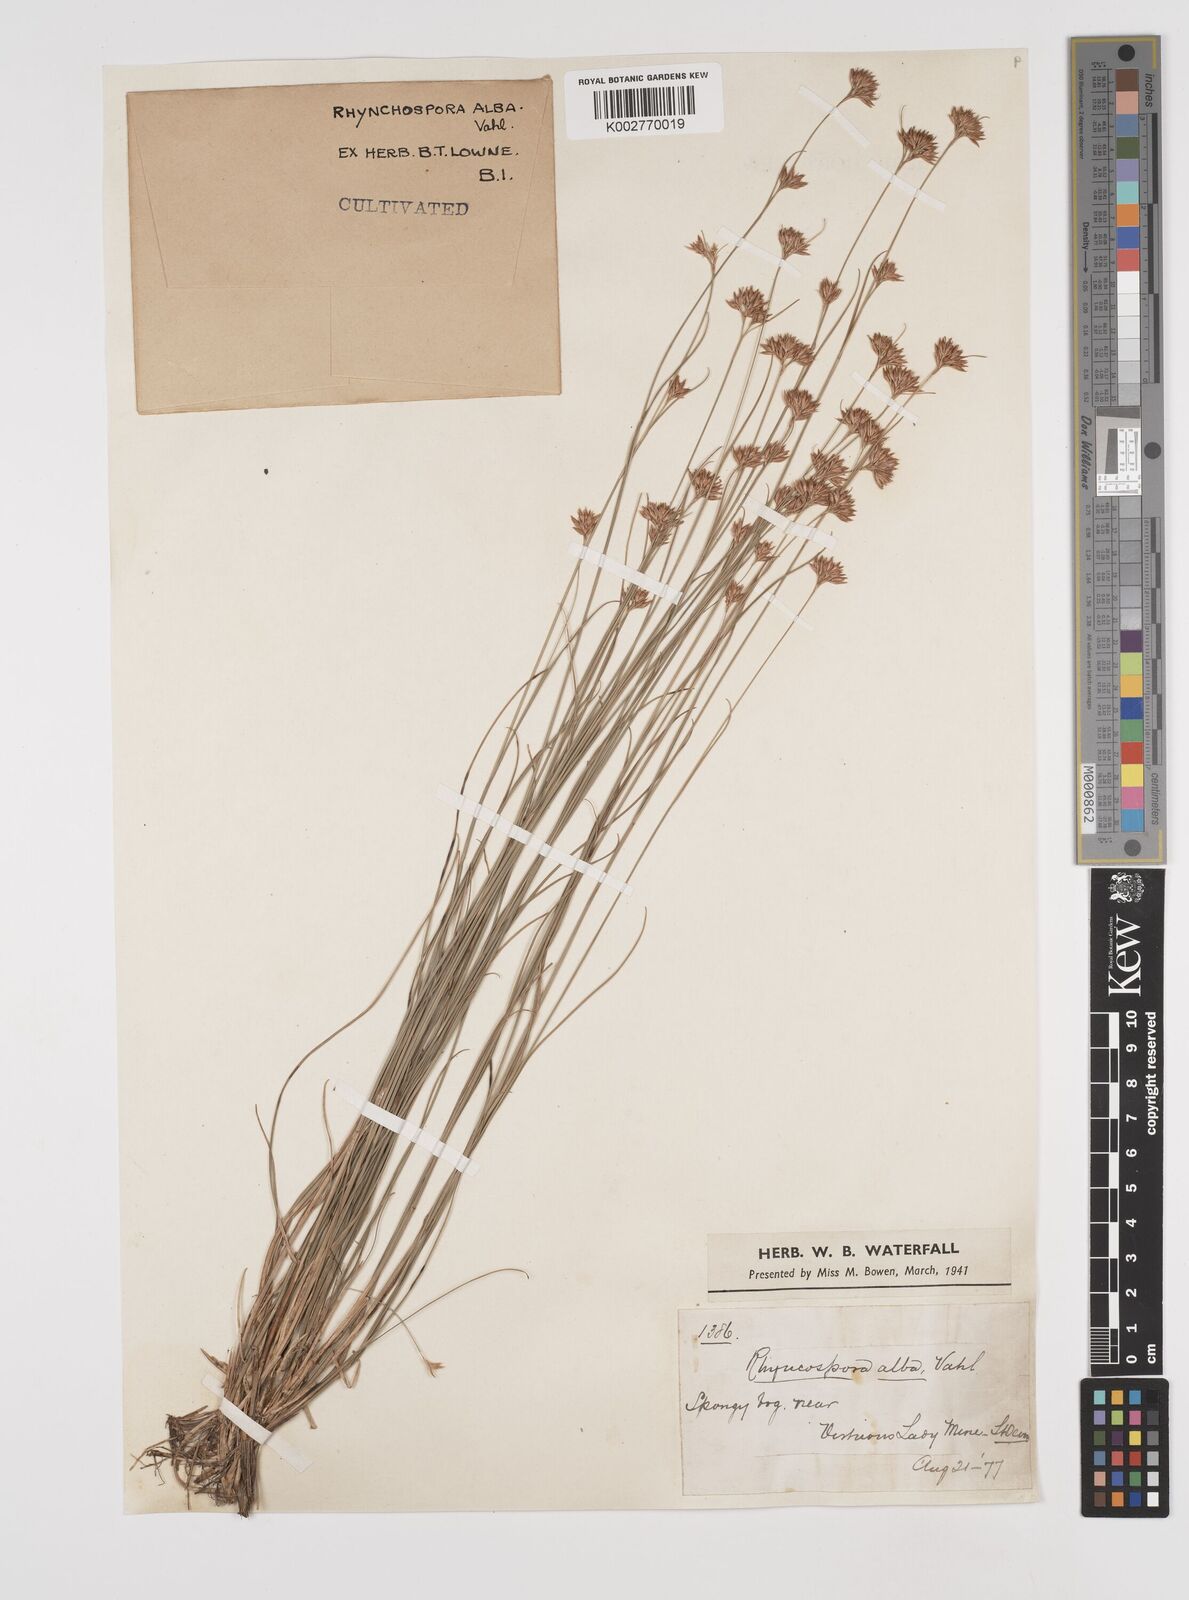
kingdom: Plantae
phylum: Tracheophyta
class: Liliopsida
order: Poales
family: Cyperaceae
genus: Rhynchospora
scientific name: Rhynchospora alba
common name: White beak-sedge
